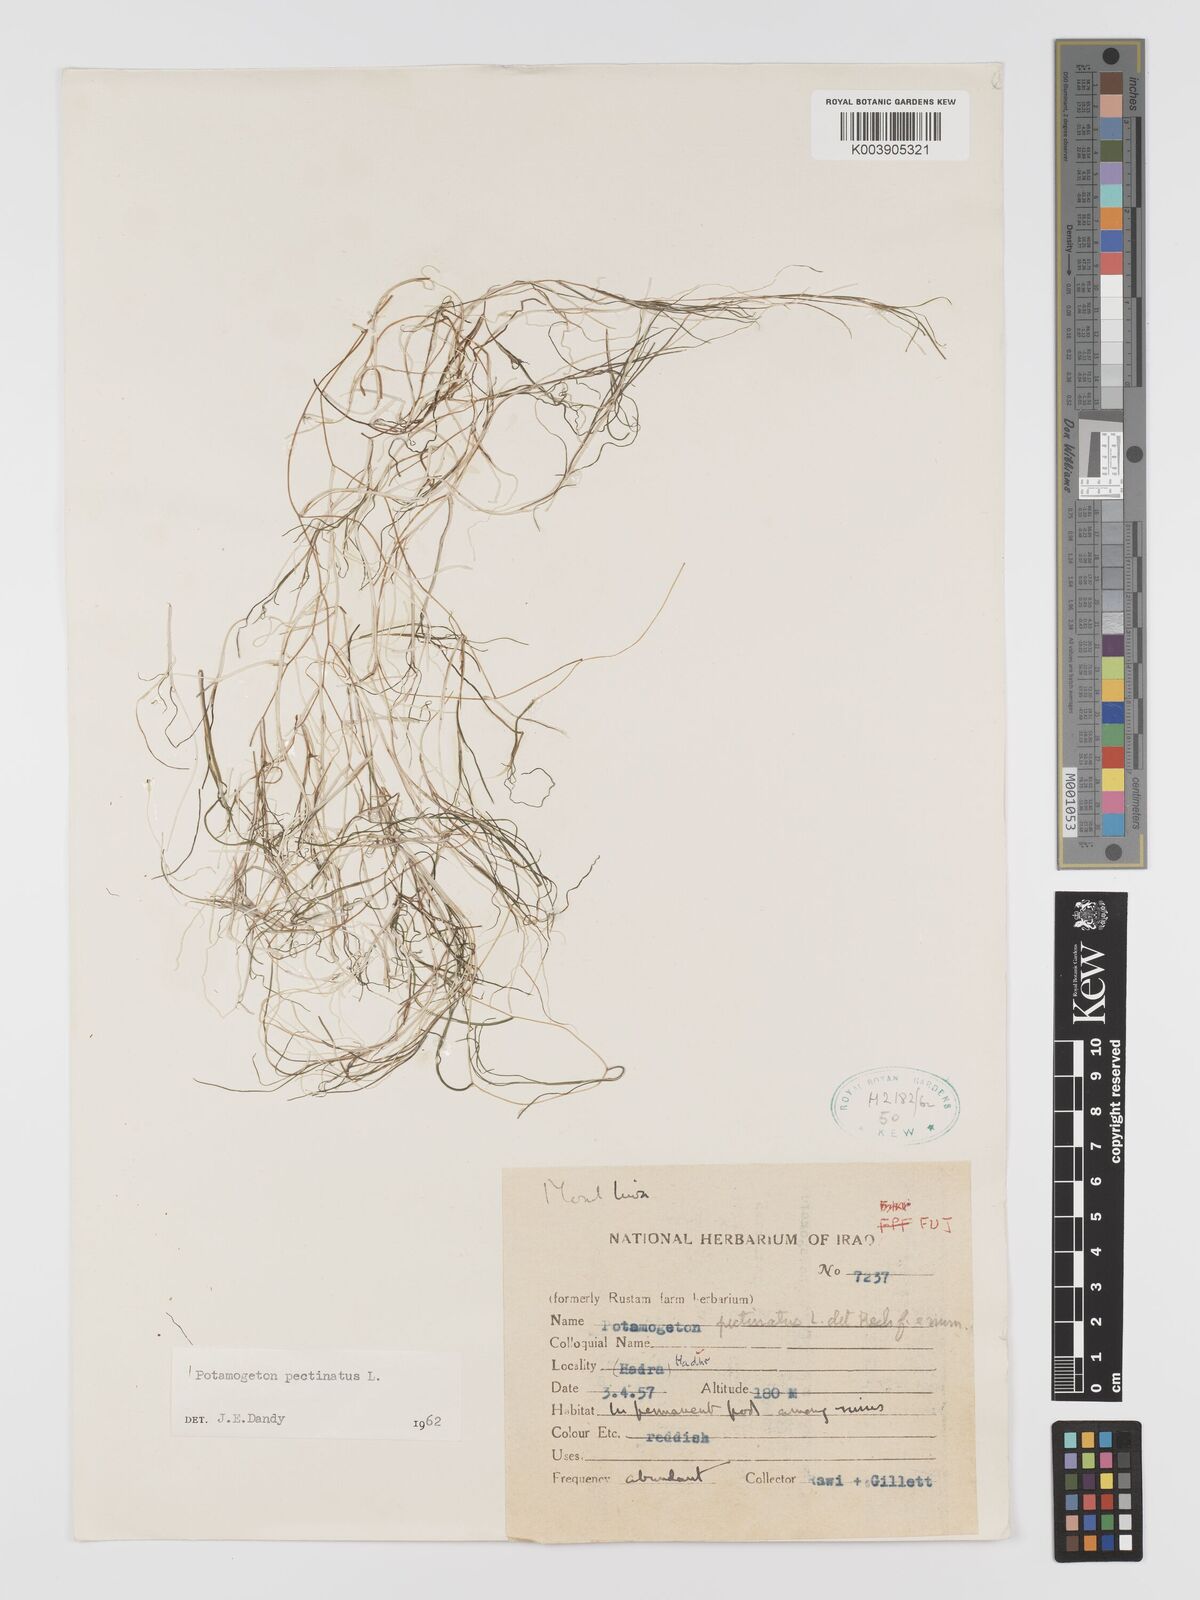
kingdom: Plantae
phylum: Tracheophyta
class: Liliopsida
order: Alismatales
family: Potamogetonaceae
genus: Stuckenia
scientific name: Stuckenia pectinata
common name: Sago pondweed
